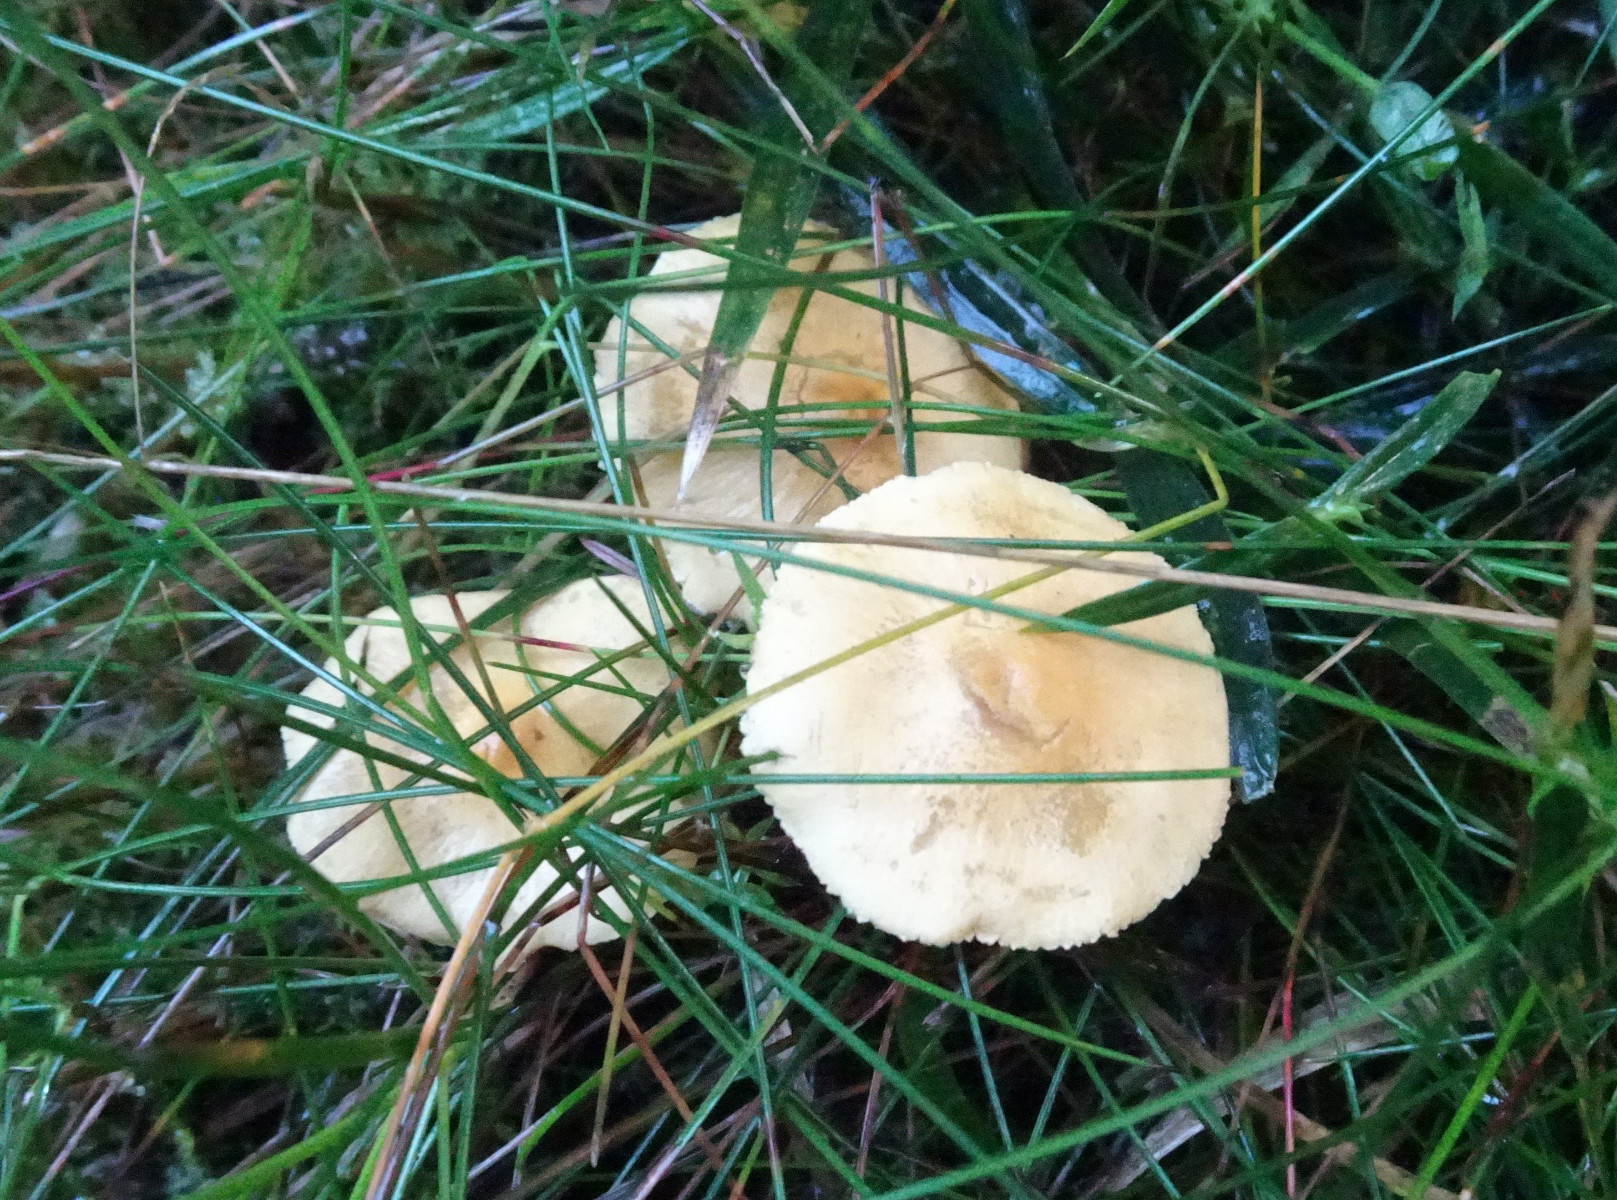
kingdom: Fungi
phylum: Basidiomycota
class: Agaricomycetes
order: Agaricales
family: Tricholomataceae
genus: Cystoderma
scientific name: Cystoderma amianthinum
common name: okkergul grynhat
